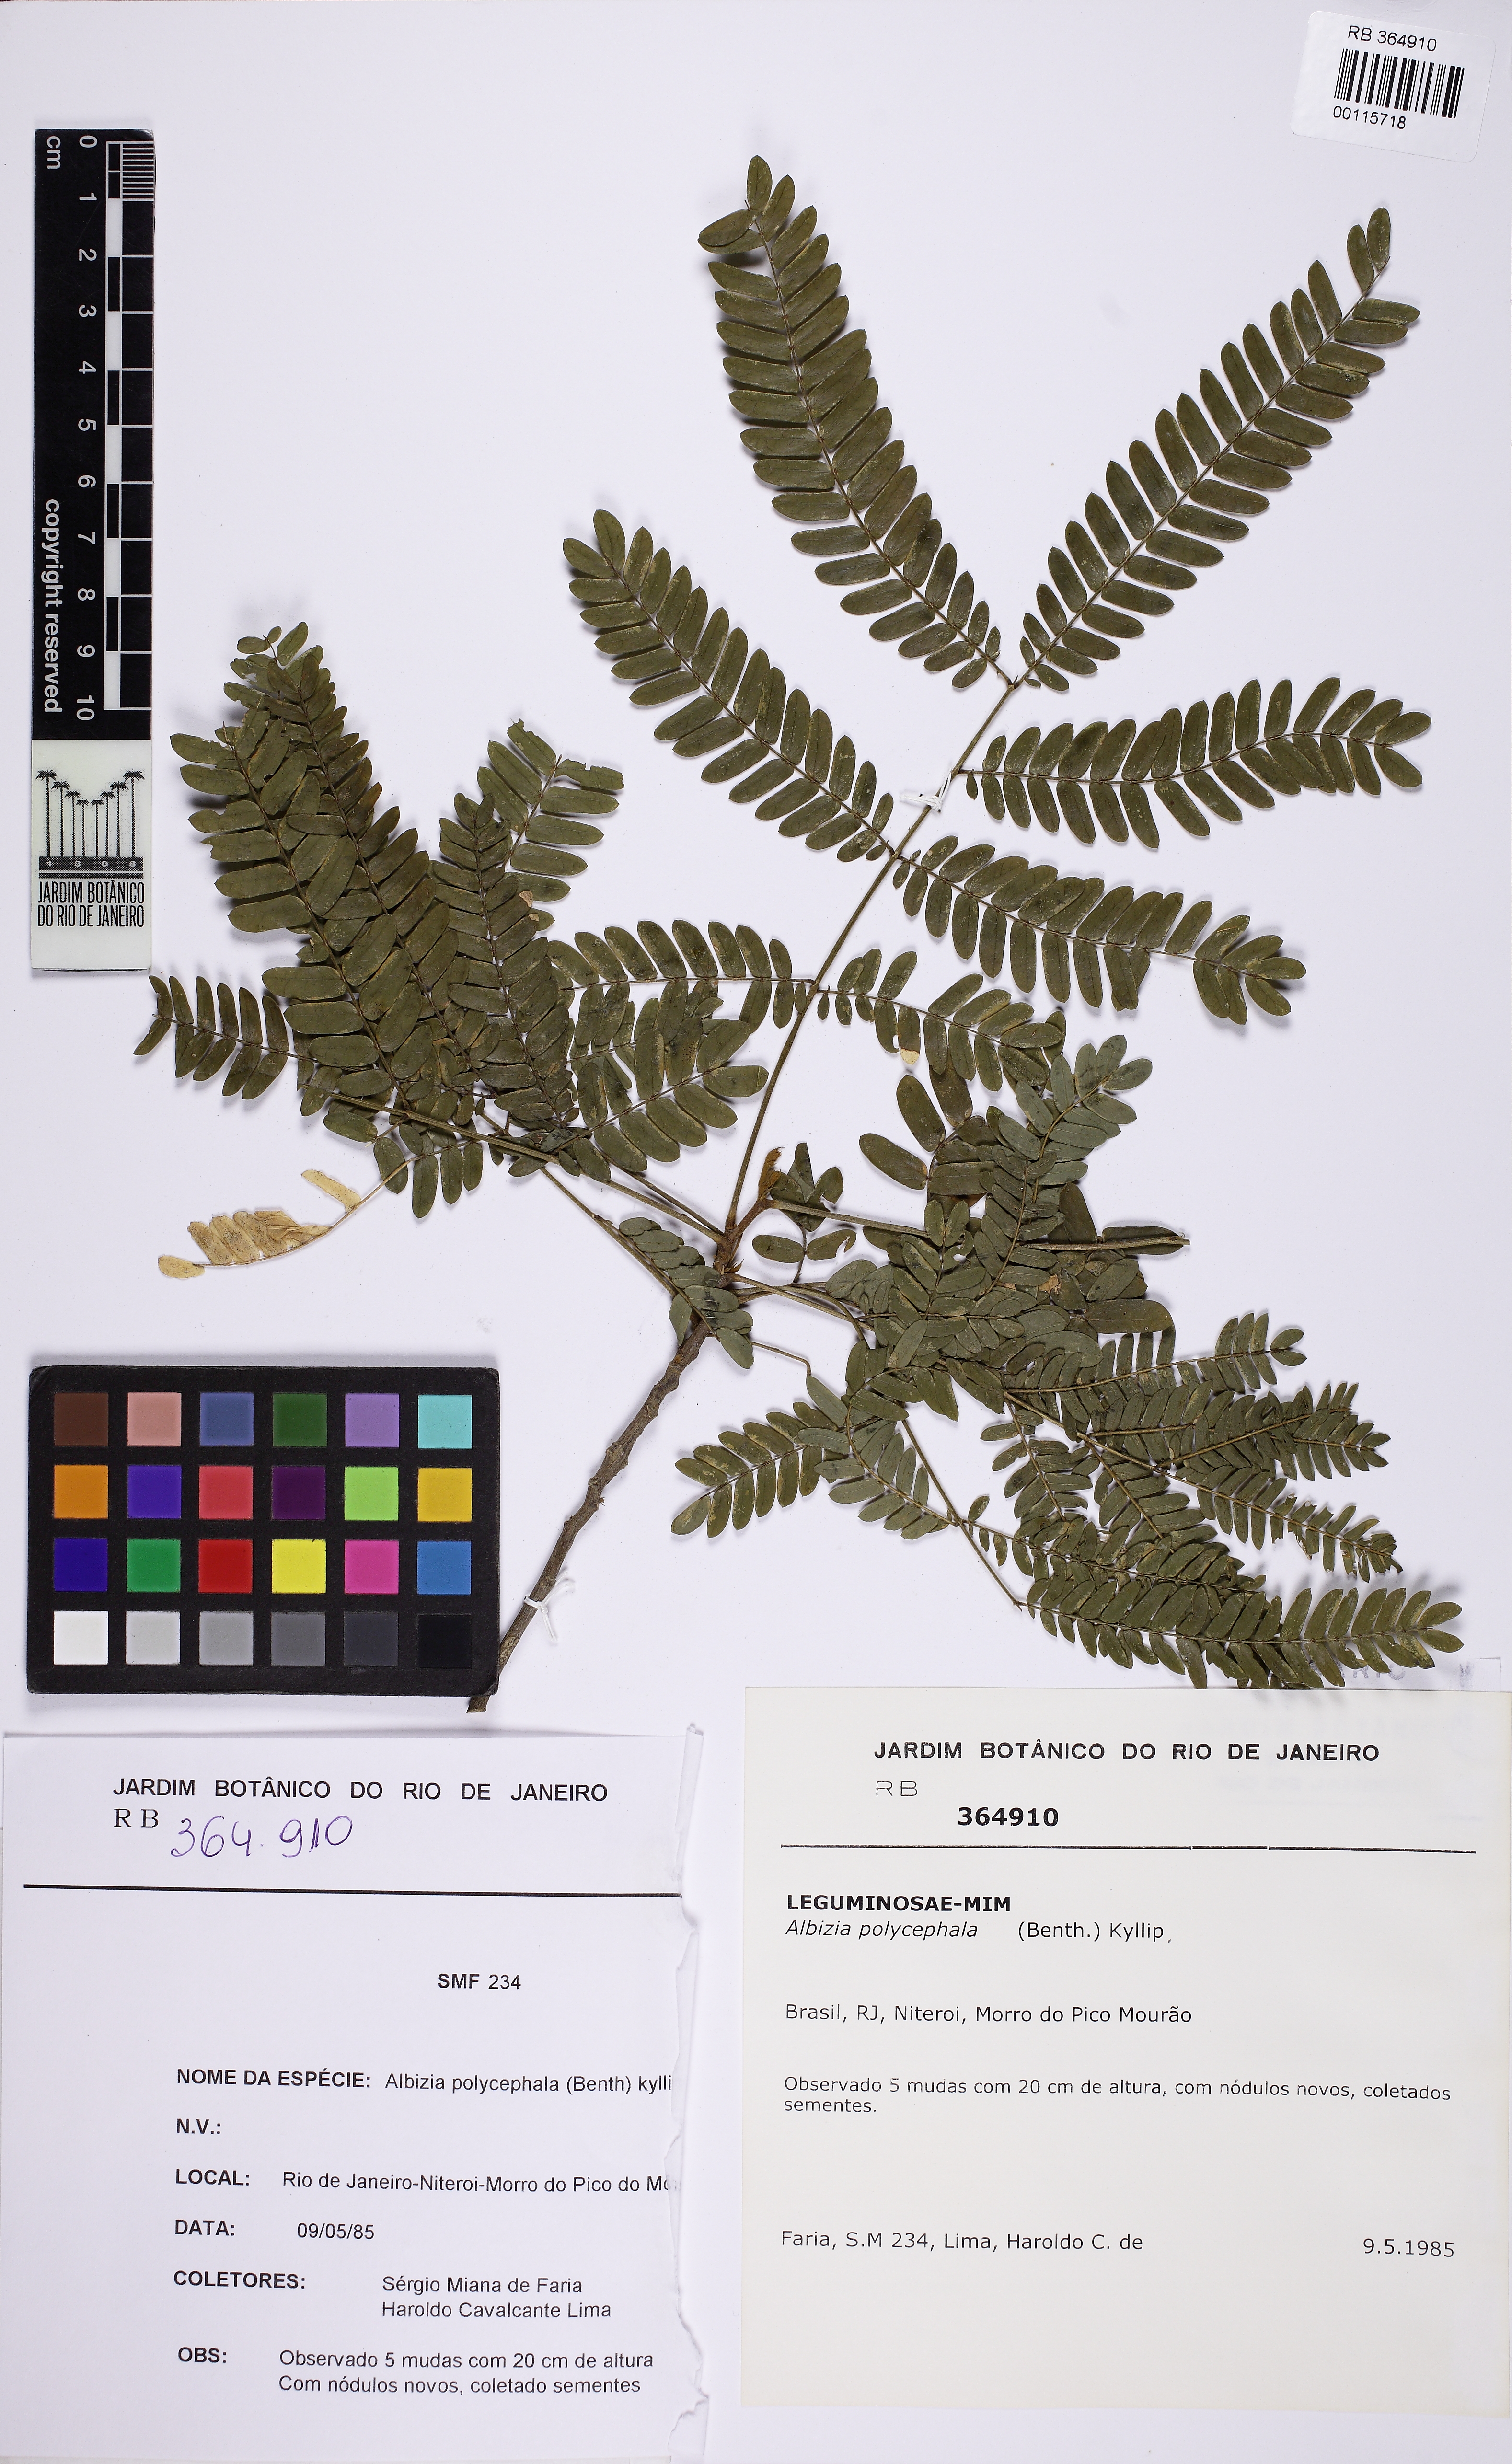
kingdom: Plantae
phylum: Tracheophyta
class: Magnoliopsida
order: Fabales
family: Fabaceae
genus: Albizia
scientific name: Albizia polycephala
